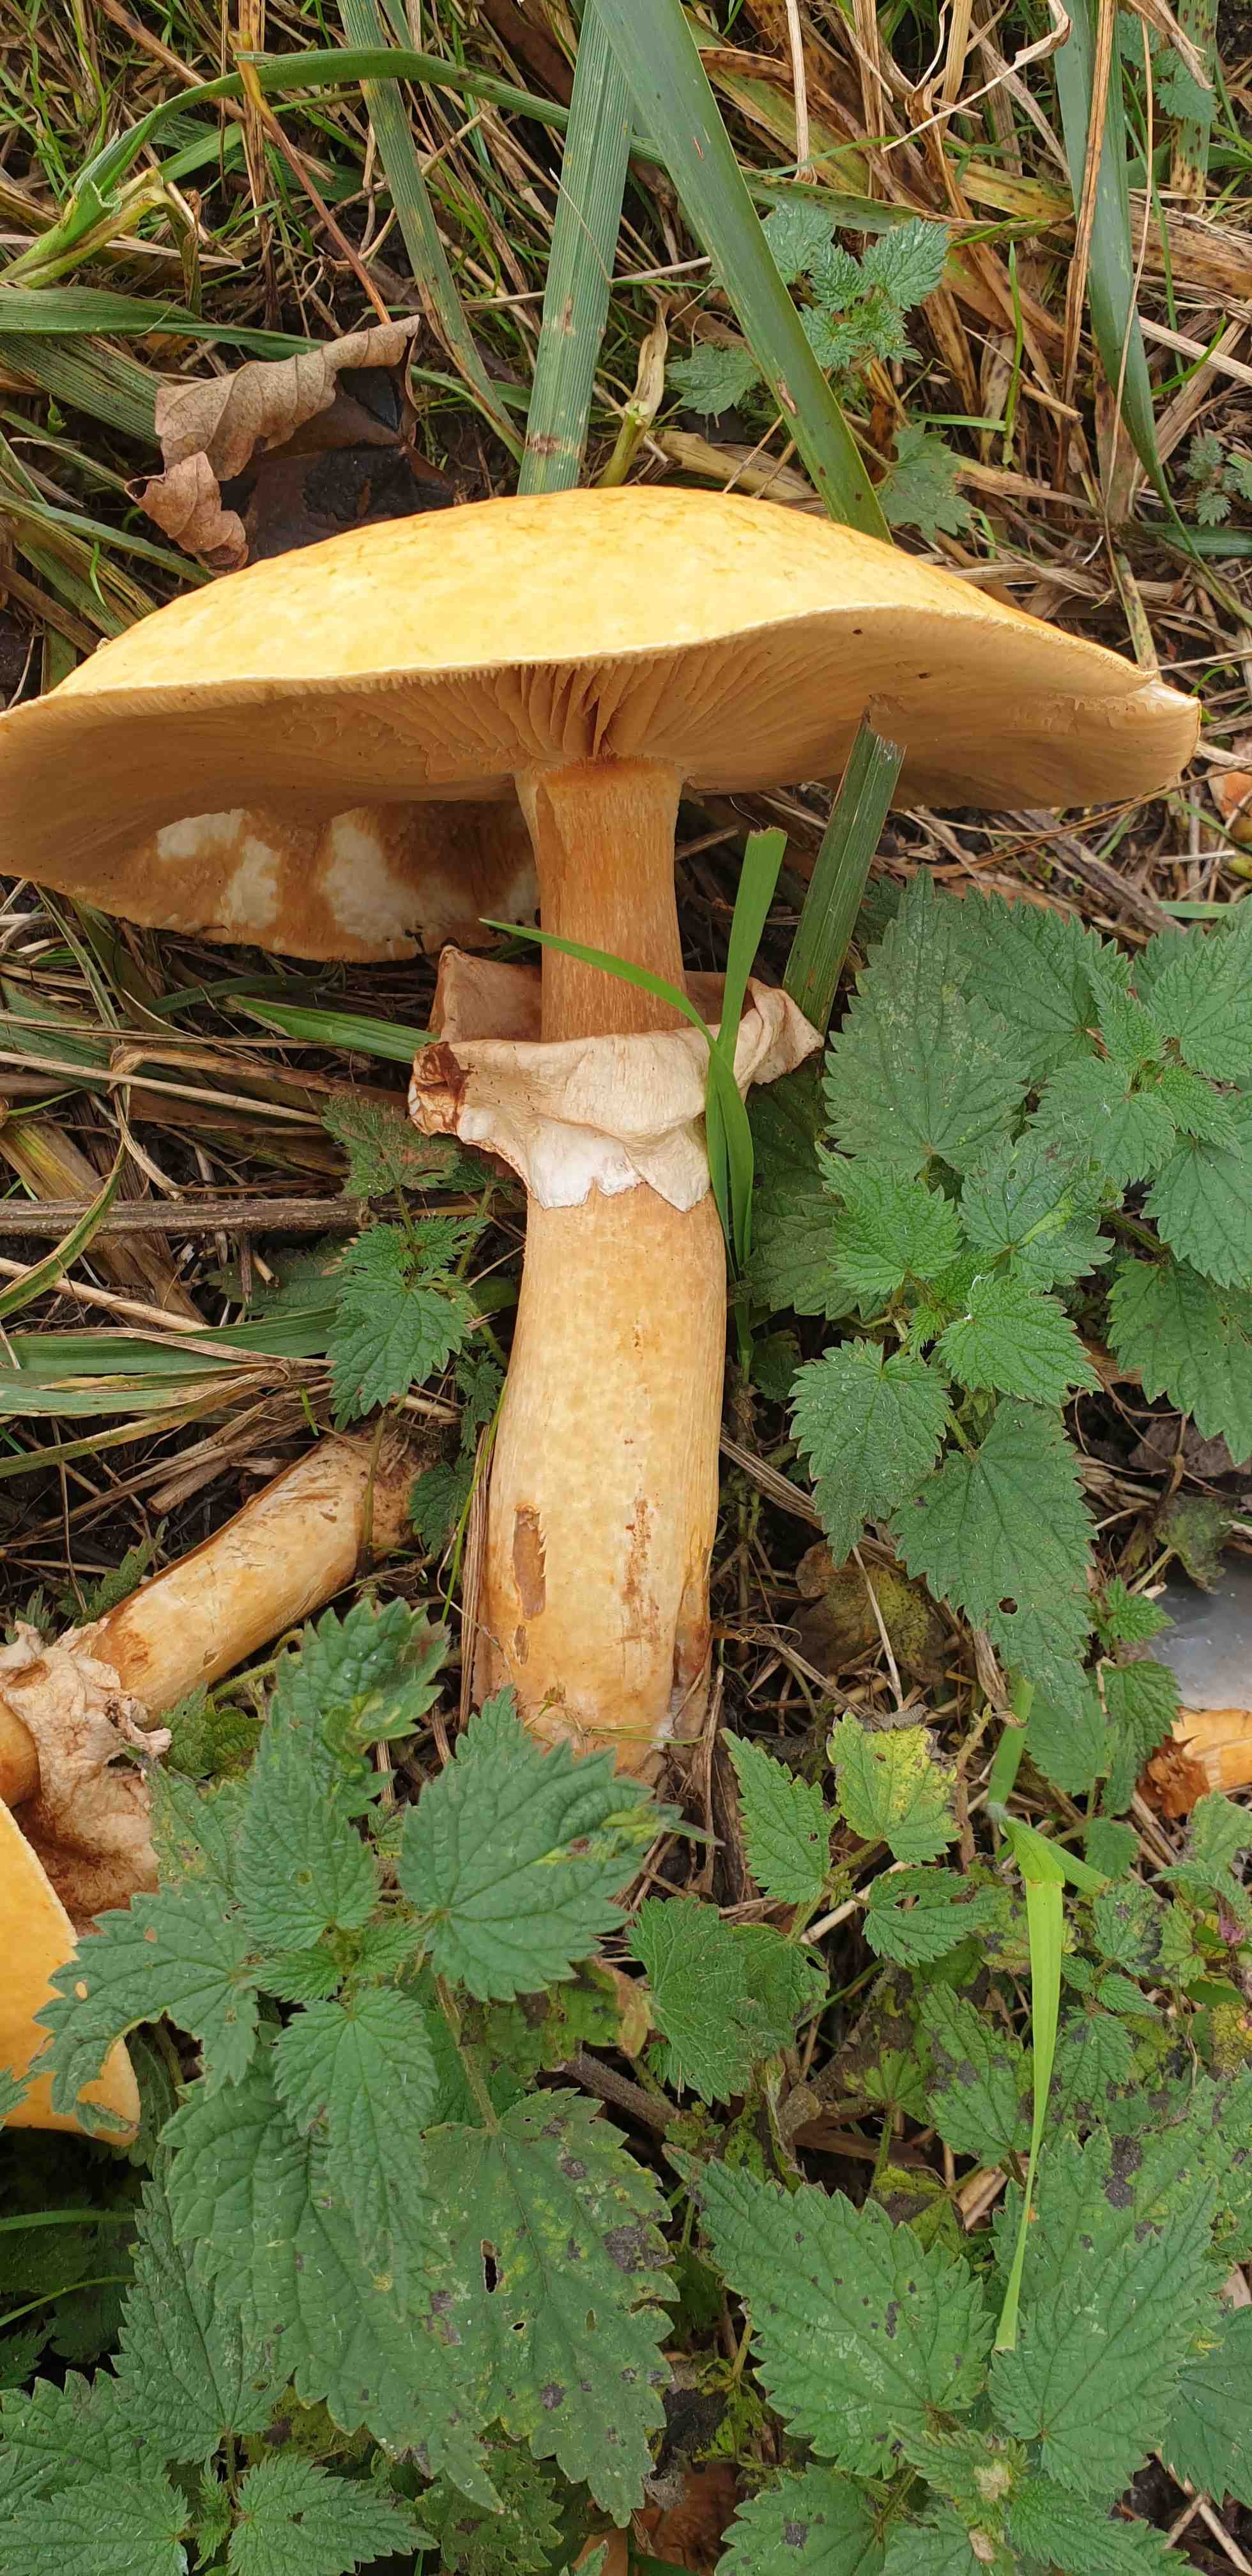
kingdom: Fungi
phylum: Basidiomycota
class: Agaricomycetes
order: Agaricales
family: Tricholomataceae
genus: Phaeolepiota
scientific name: Phaeolepiota aurea
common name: gyldenhat
